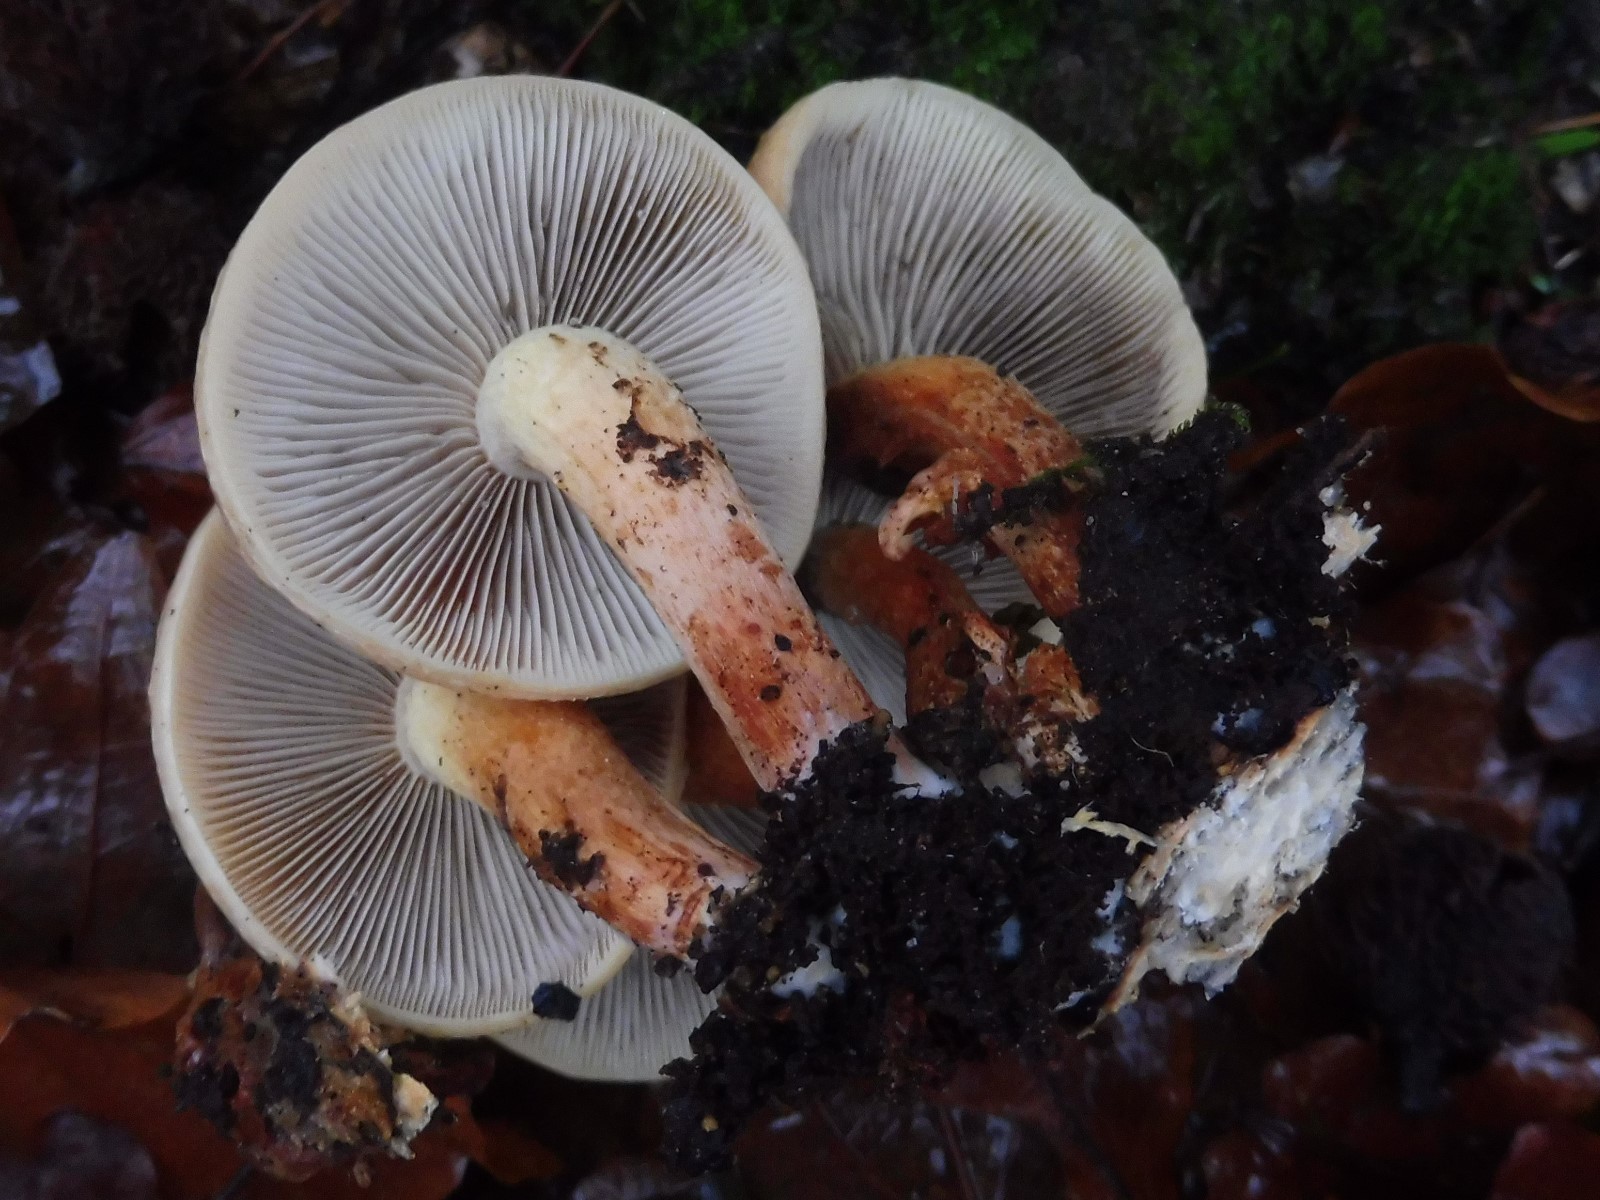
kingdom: Fungi
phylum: Basidiomycota
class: Agaricomycetes
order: Agaricales
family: Strophariaceae
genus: Hypholoma
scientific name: Hypholoma lateritium
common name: teglrød svovlhat
